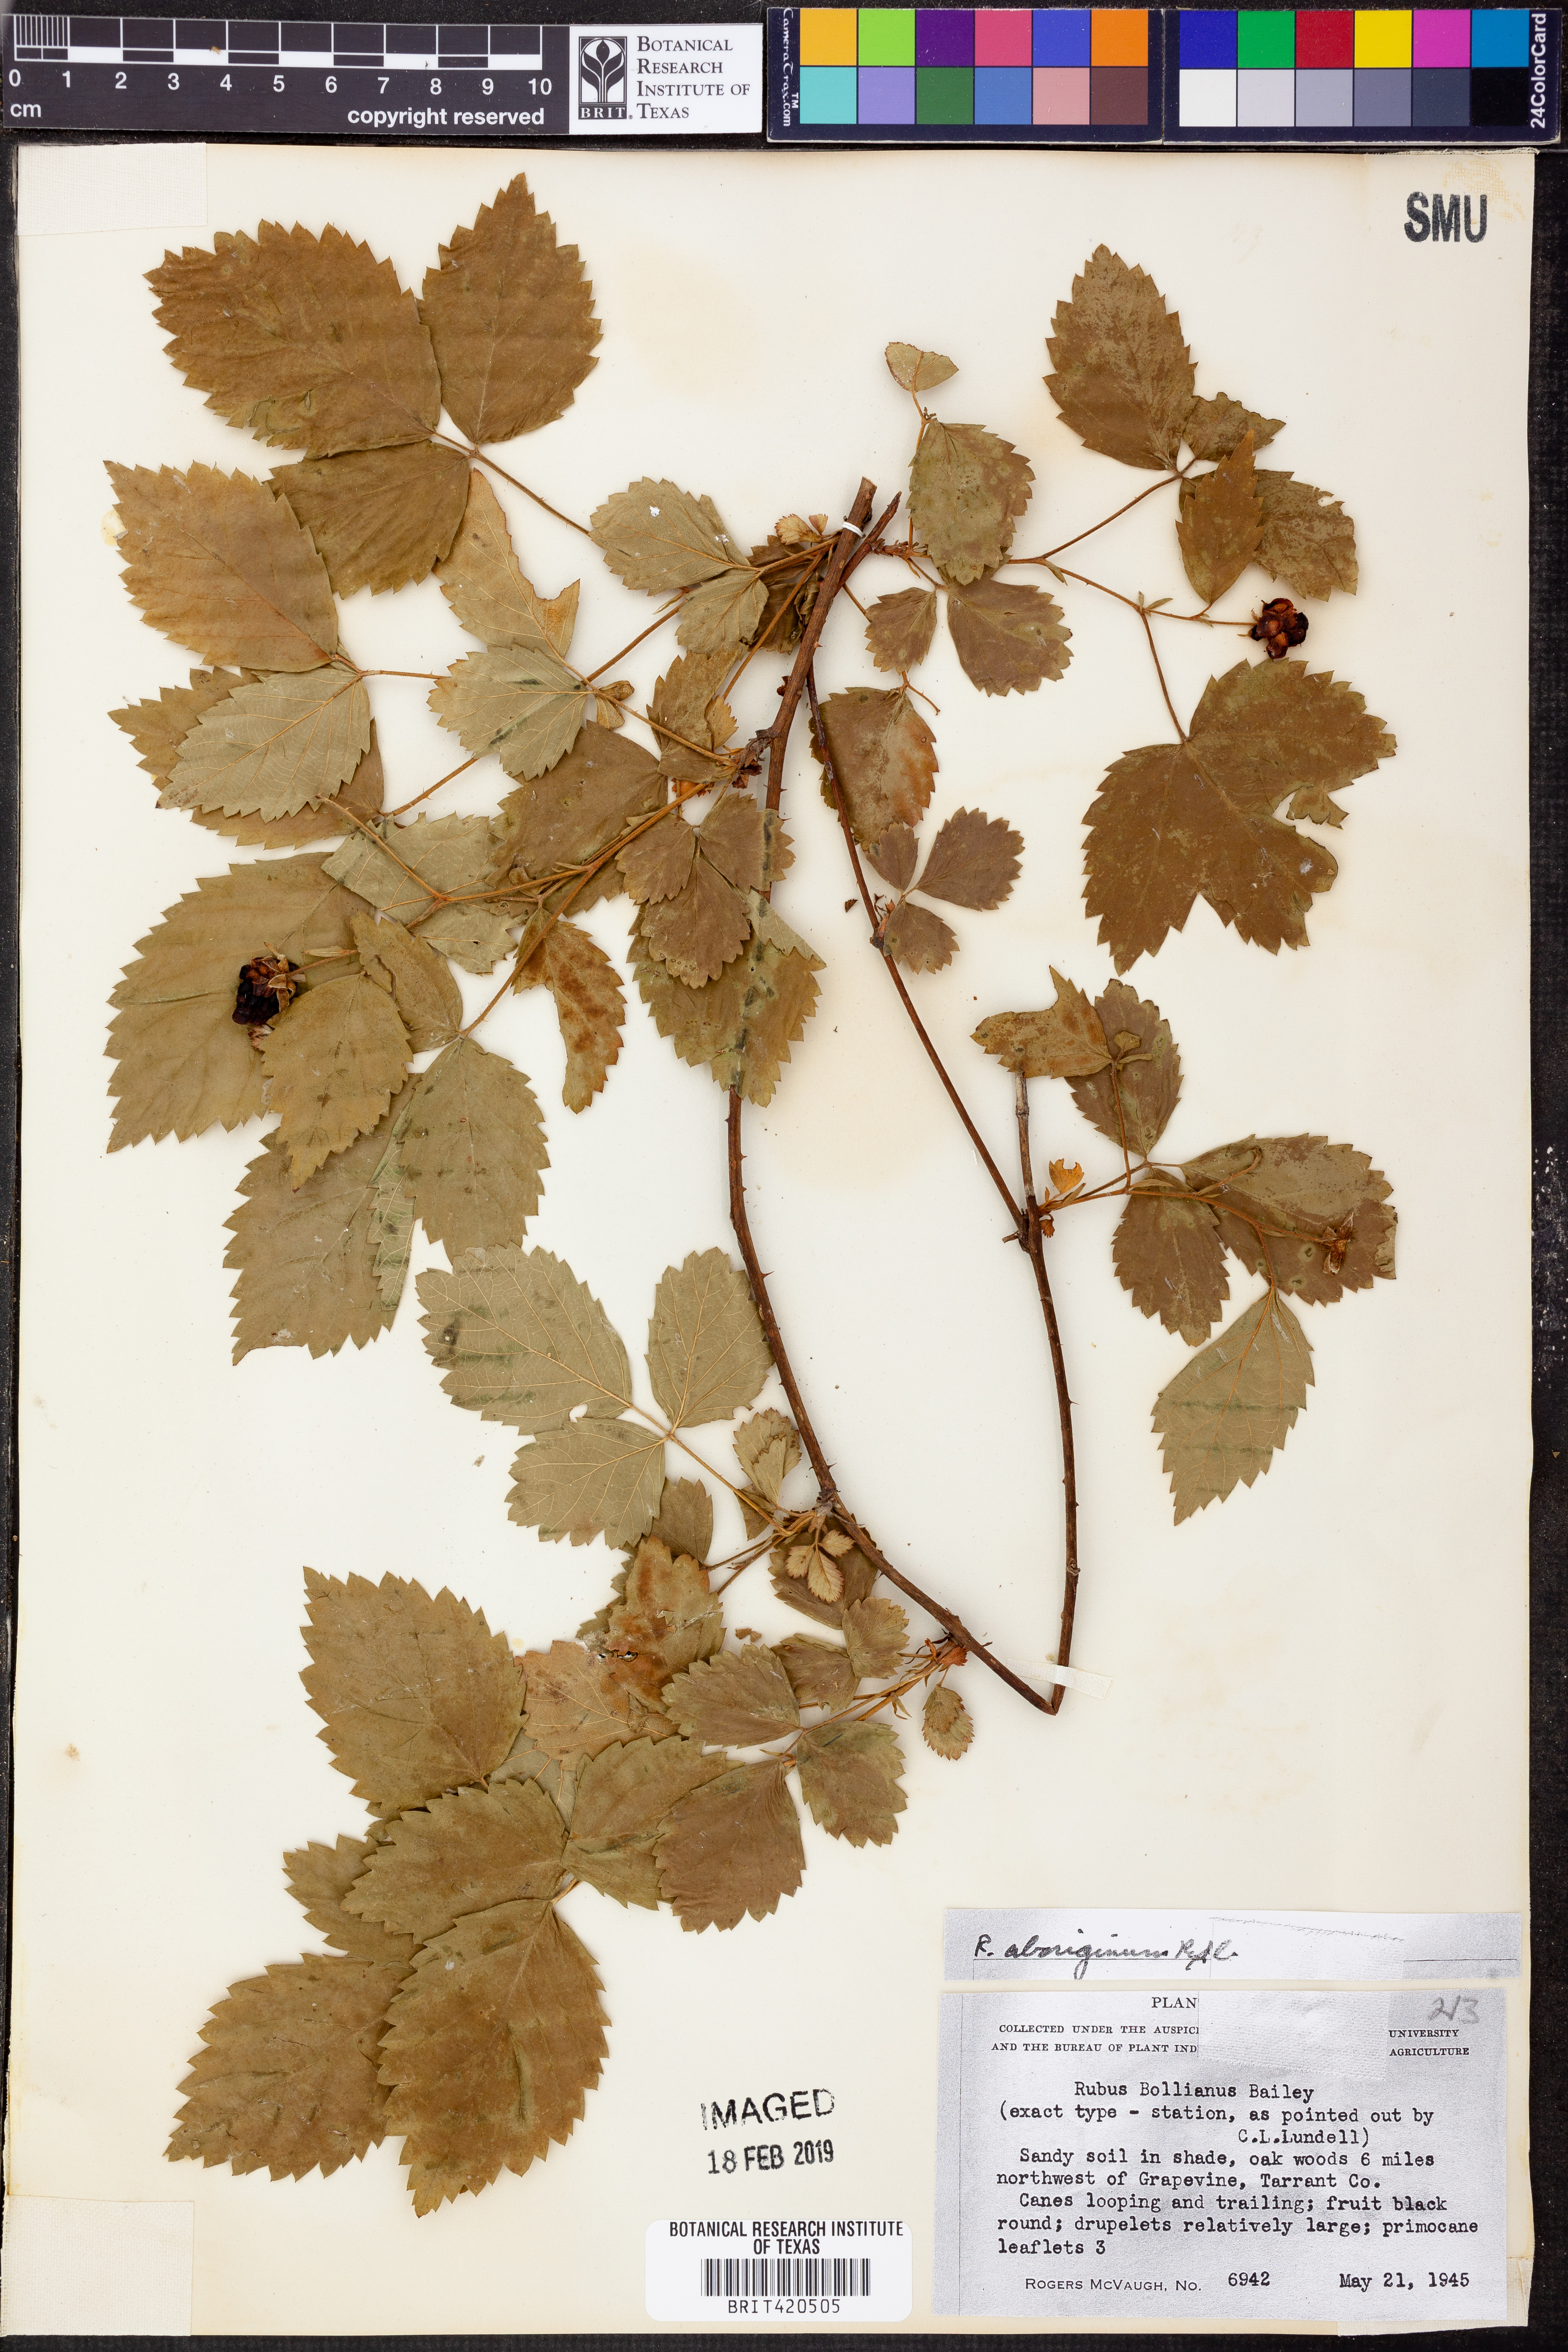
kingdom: Plantae
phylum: Tracheophyta
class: Magnoliopsida
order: Rosales
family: Rosaceae
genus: Rubus
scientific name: Rubus aboriginum
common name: Mayes dewberry
